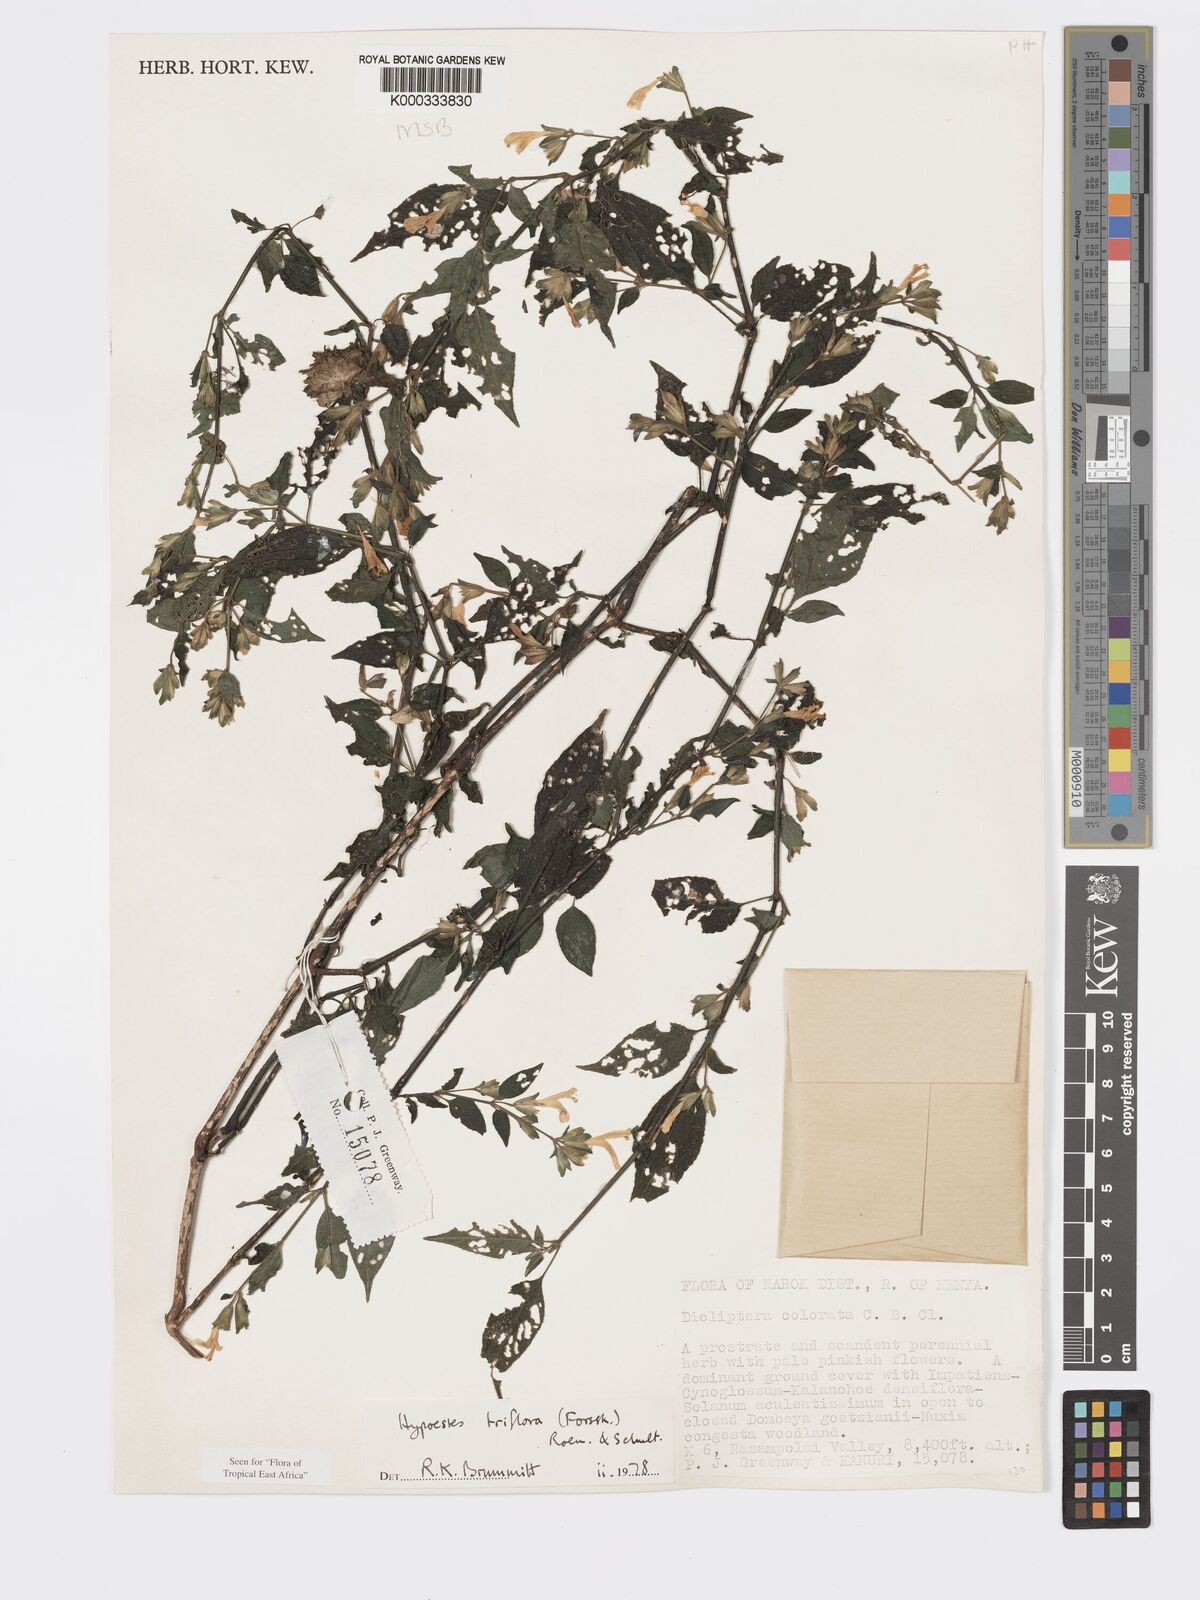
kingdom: Plantae
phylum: Tracheophyta
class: Magnoliopsida
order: Lamiales
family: Acanthaceae
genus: Hypoestes
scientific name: Hypoestes triflora
